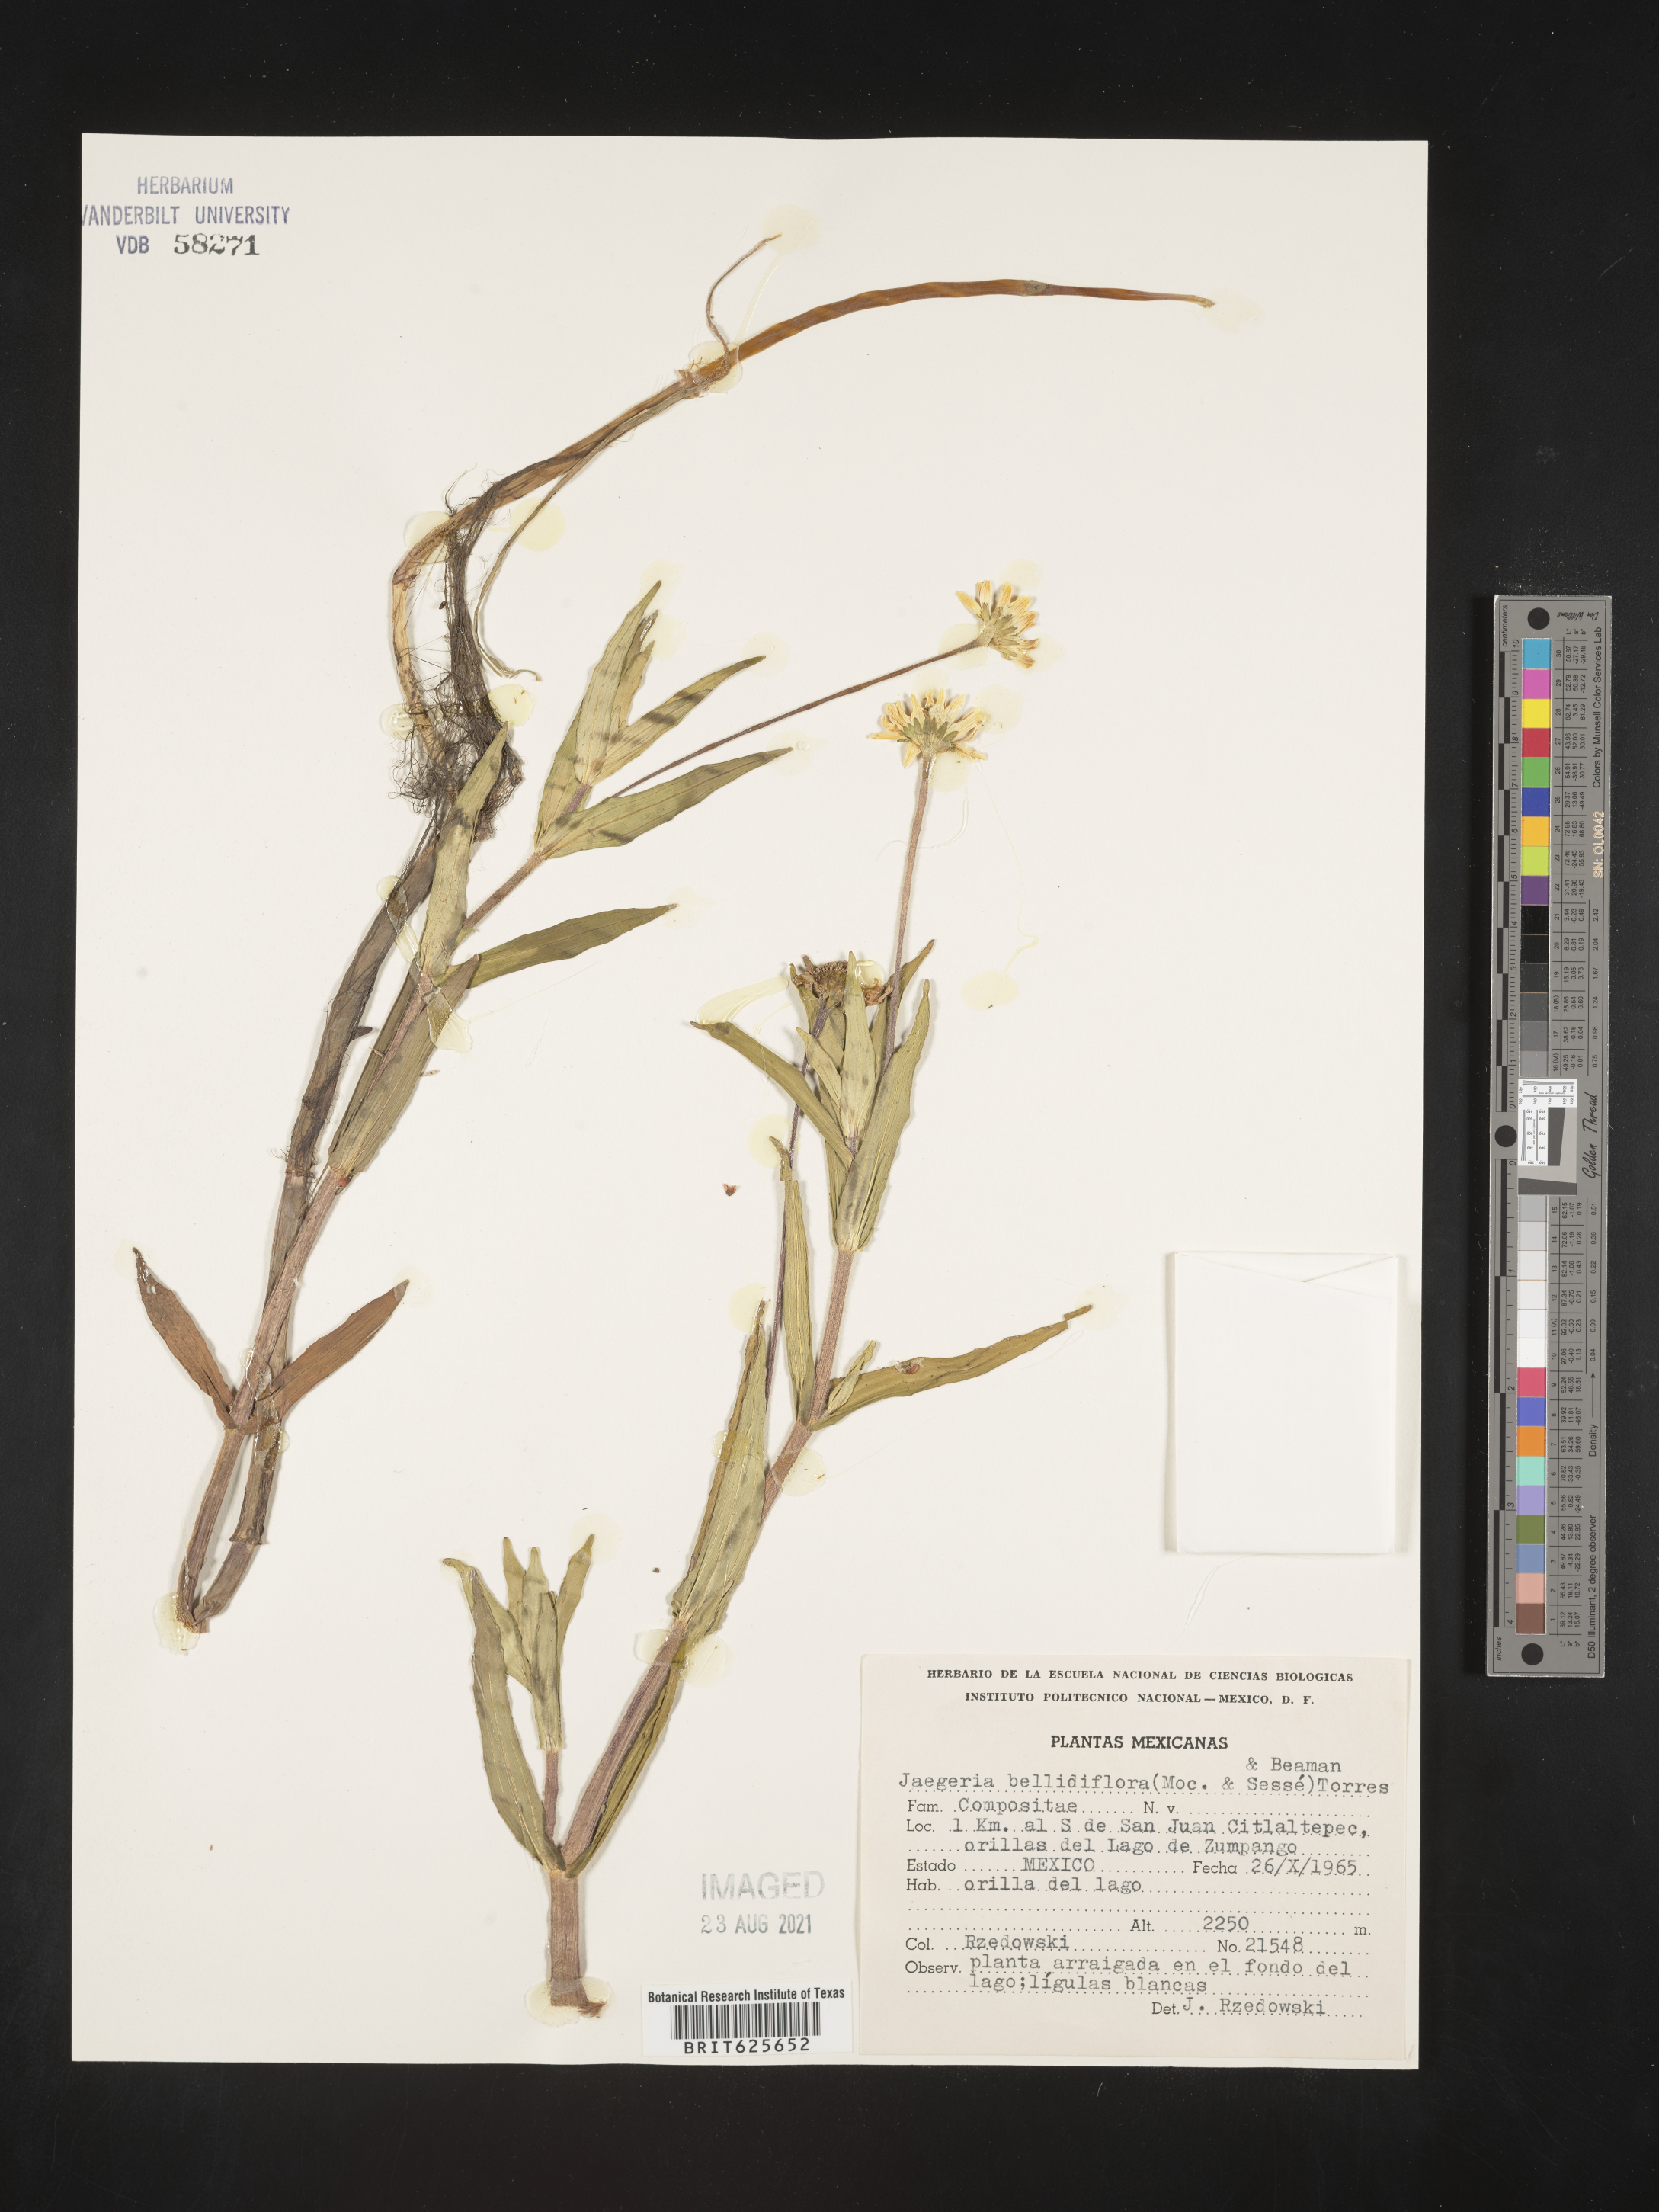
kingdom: Plantae
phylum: Tracheophyta
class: Magnoliopsida
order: Asterales
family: Asteraceae
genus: Jaegeria
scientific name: Jaegeria
